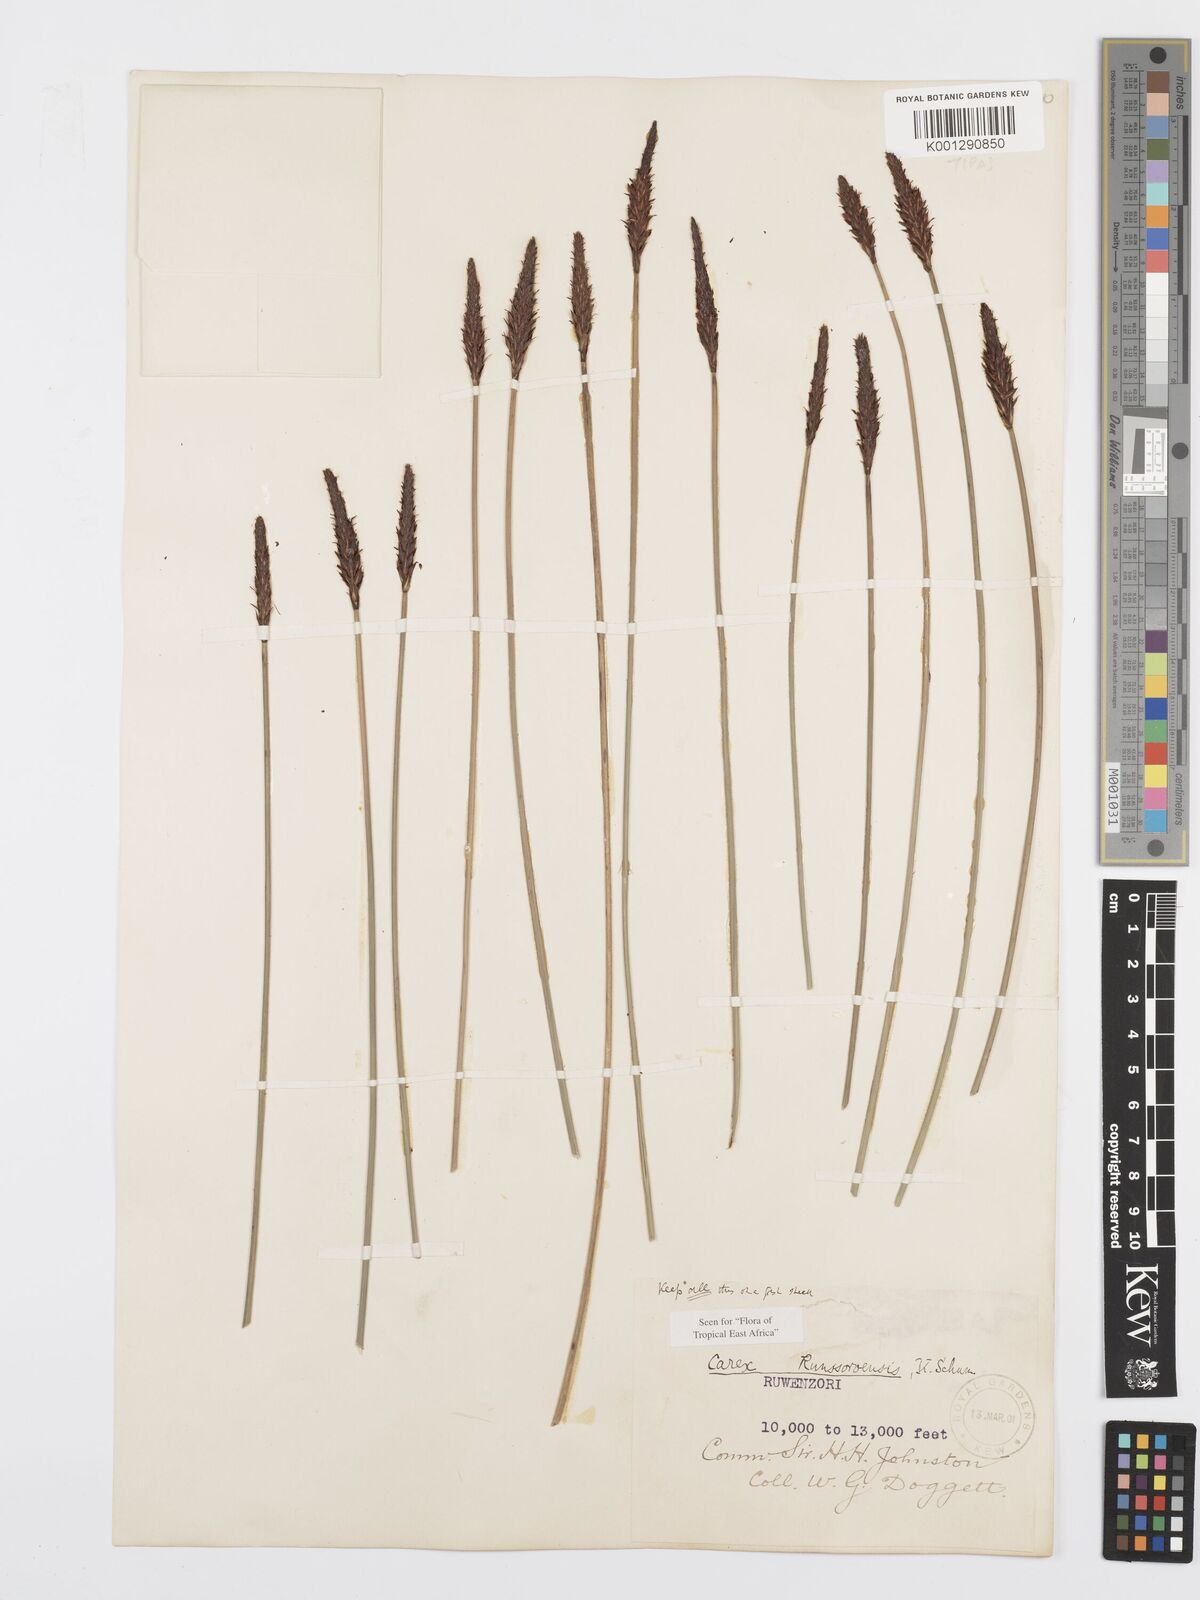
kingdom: Plantae
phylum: Tracheophyta
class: Liliopsida
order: Poales
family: Cyperaceae
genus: Carex
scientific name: Carex runssoroensis
